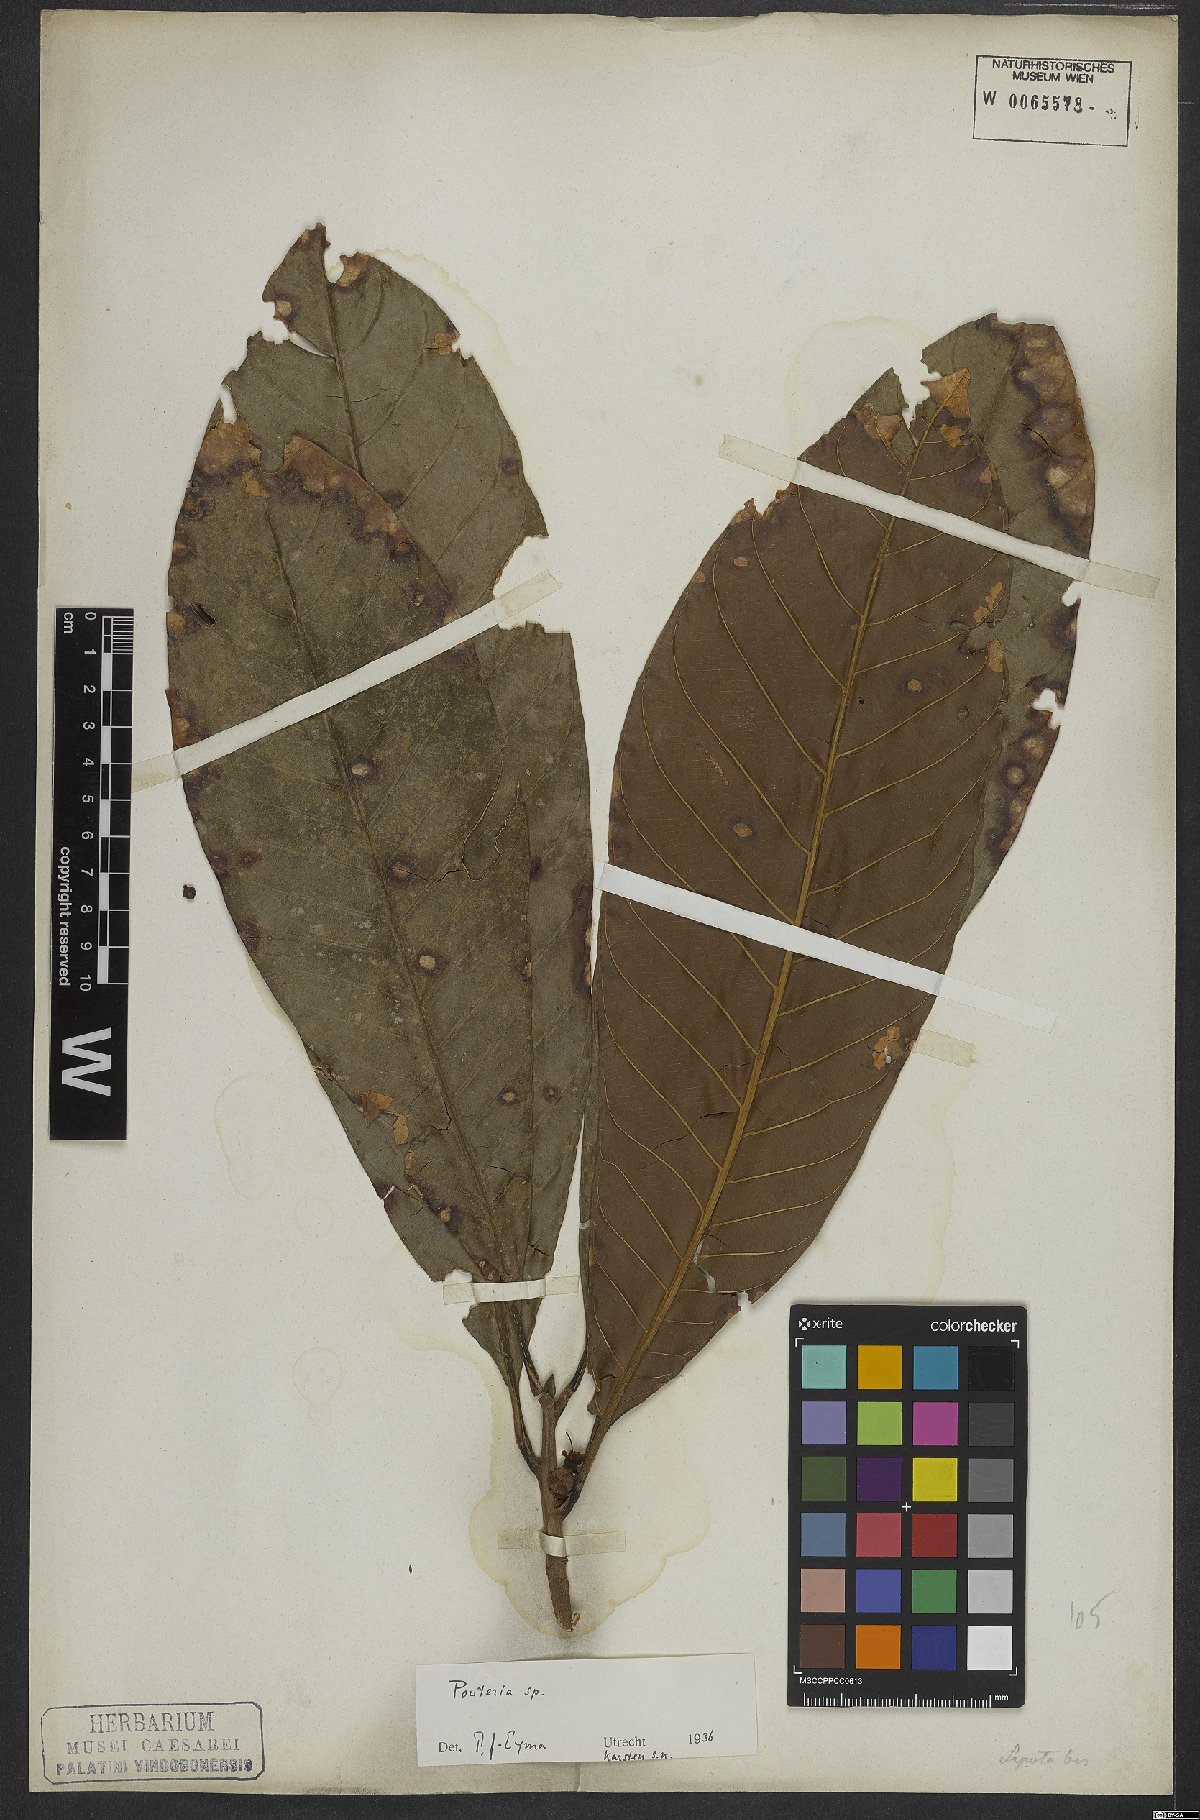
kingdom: Plantae
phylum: Tracheophyta
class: Magnoliopsida
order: Ericales
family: Sapotaceae
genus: Pouteria
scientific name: Pouteria
